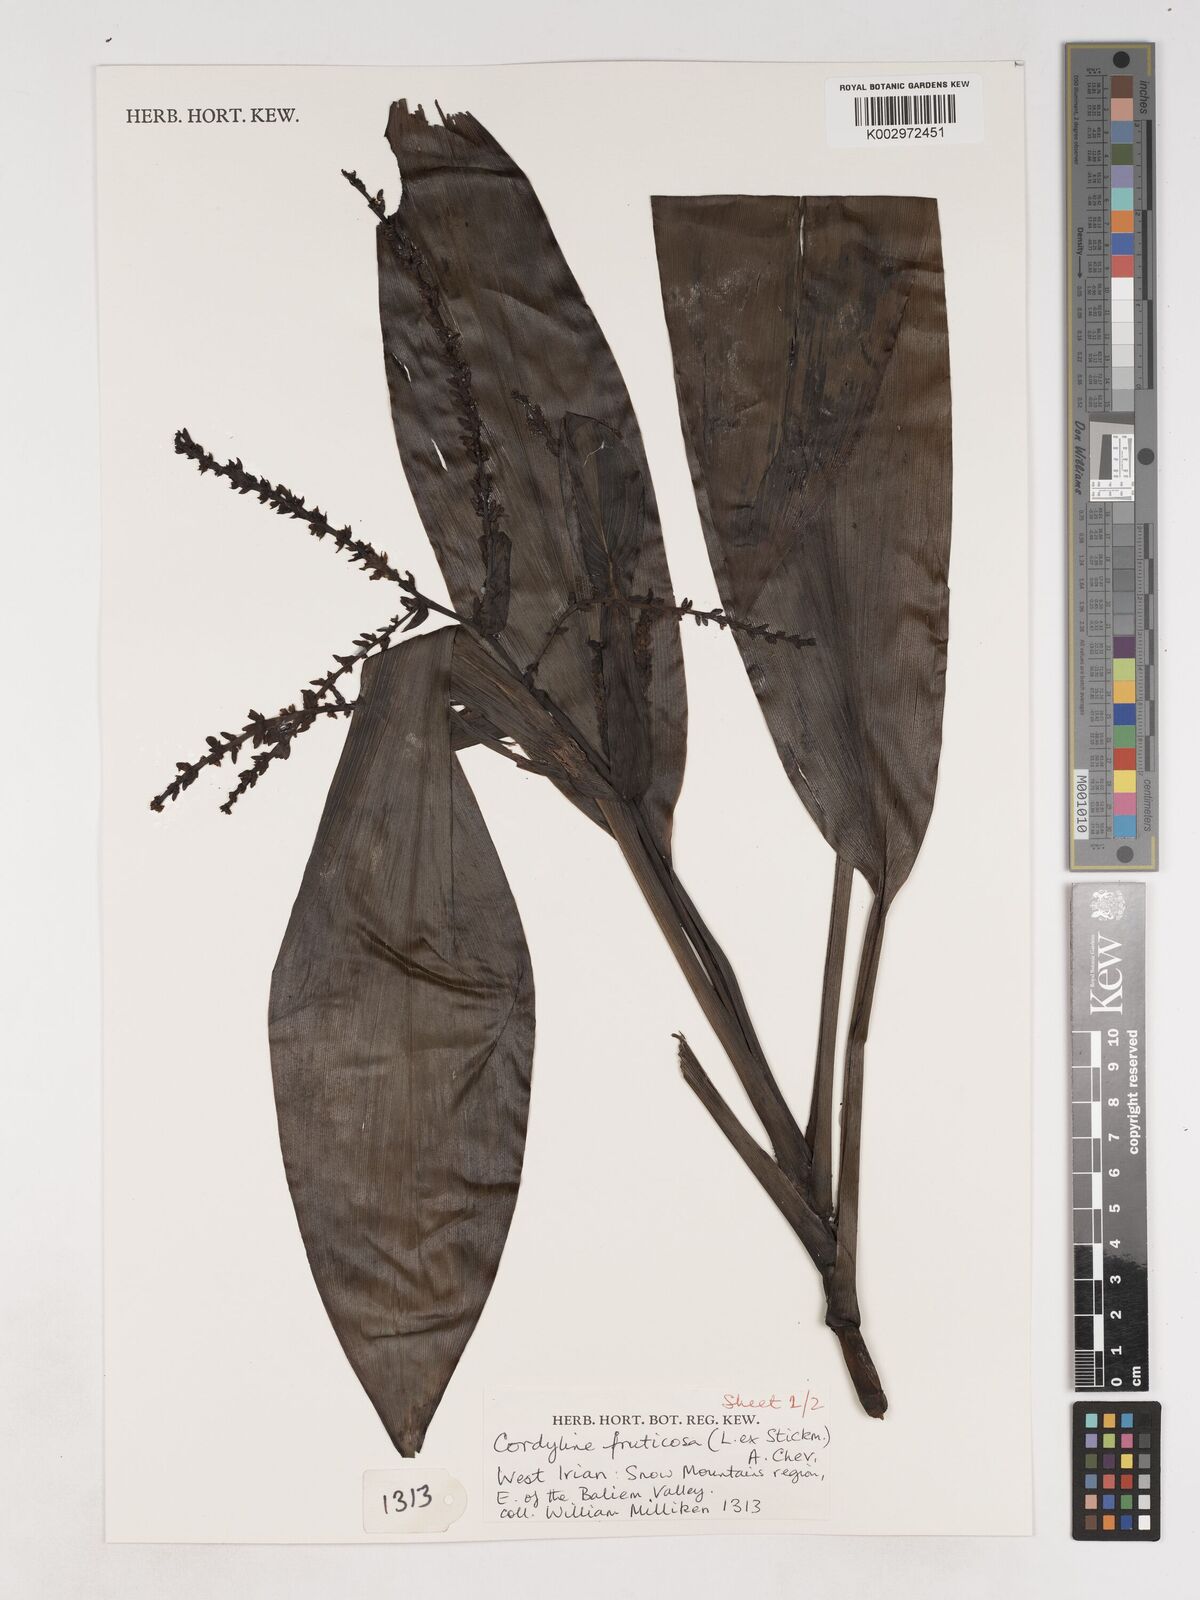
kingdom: Plantae
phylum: Tracheophyta
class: Liliopsida
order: Asparagales
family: Asparagaceae
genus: Cordyline
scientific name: Cordyline fruticosa
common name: Good-luck-plant
